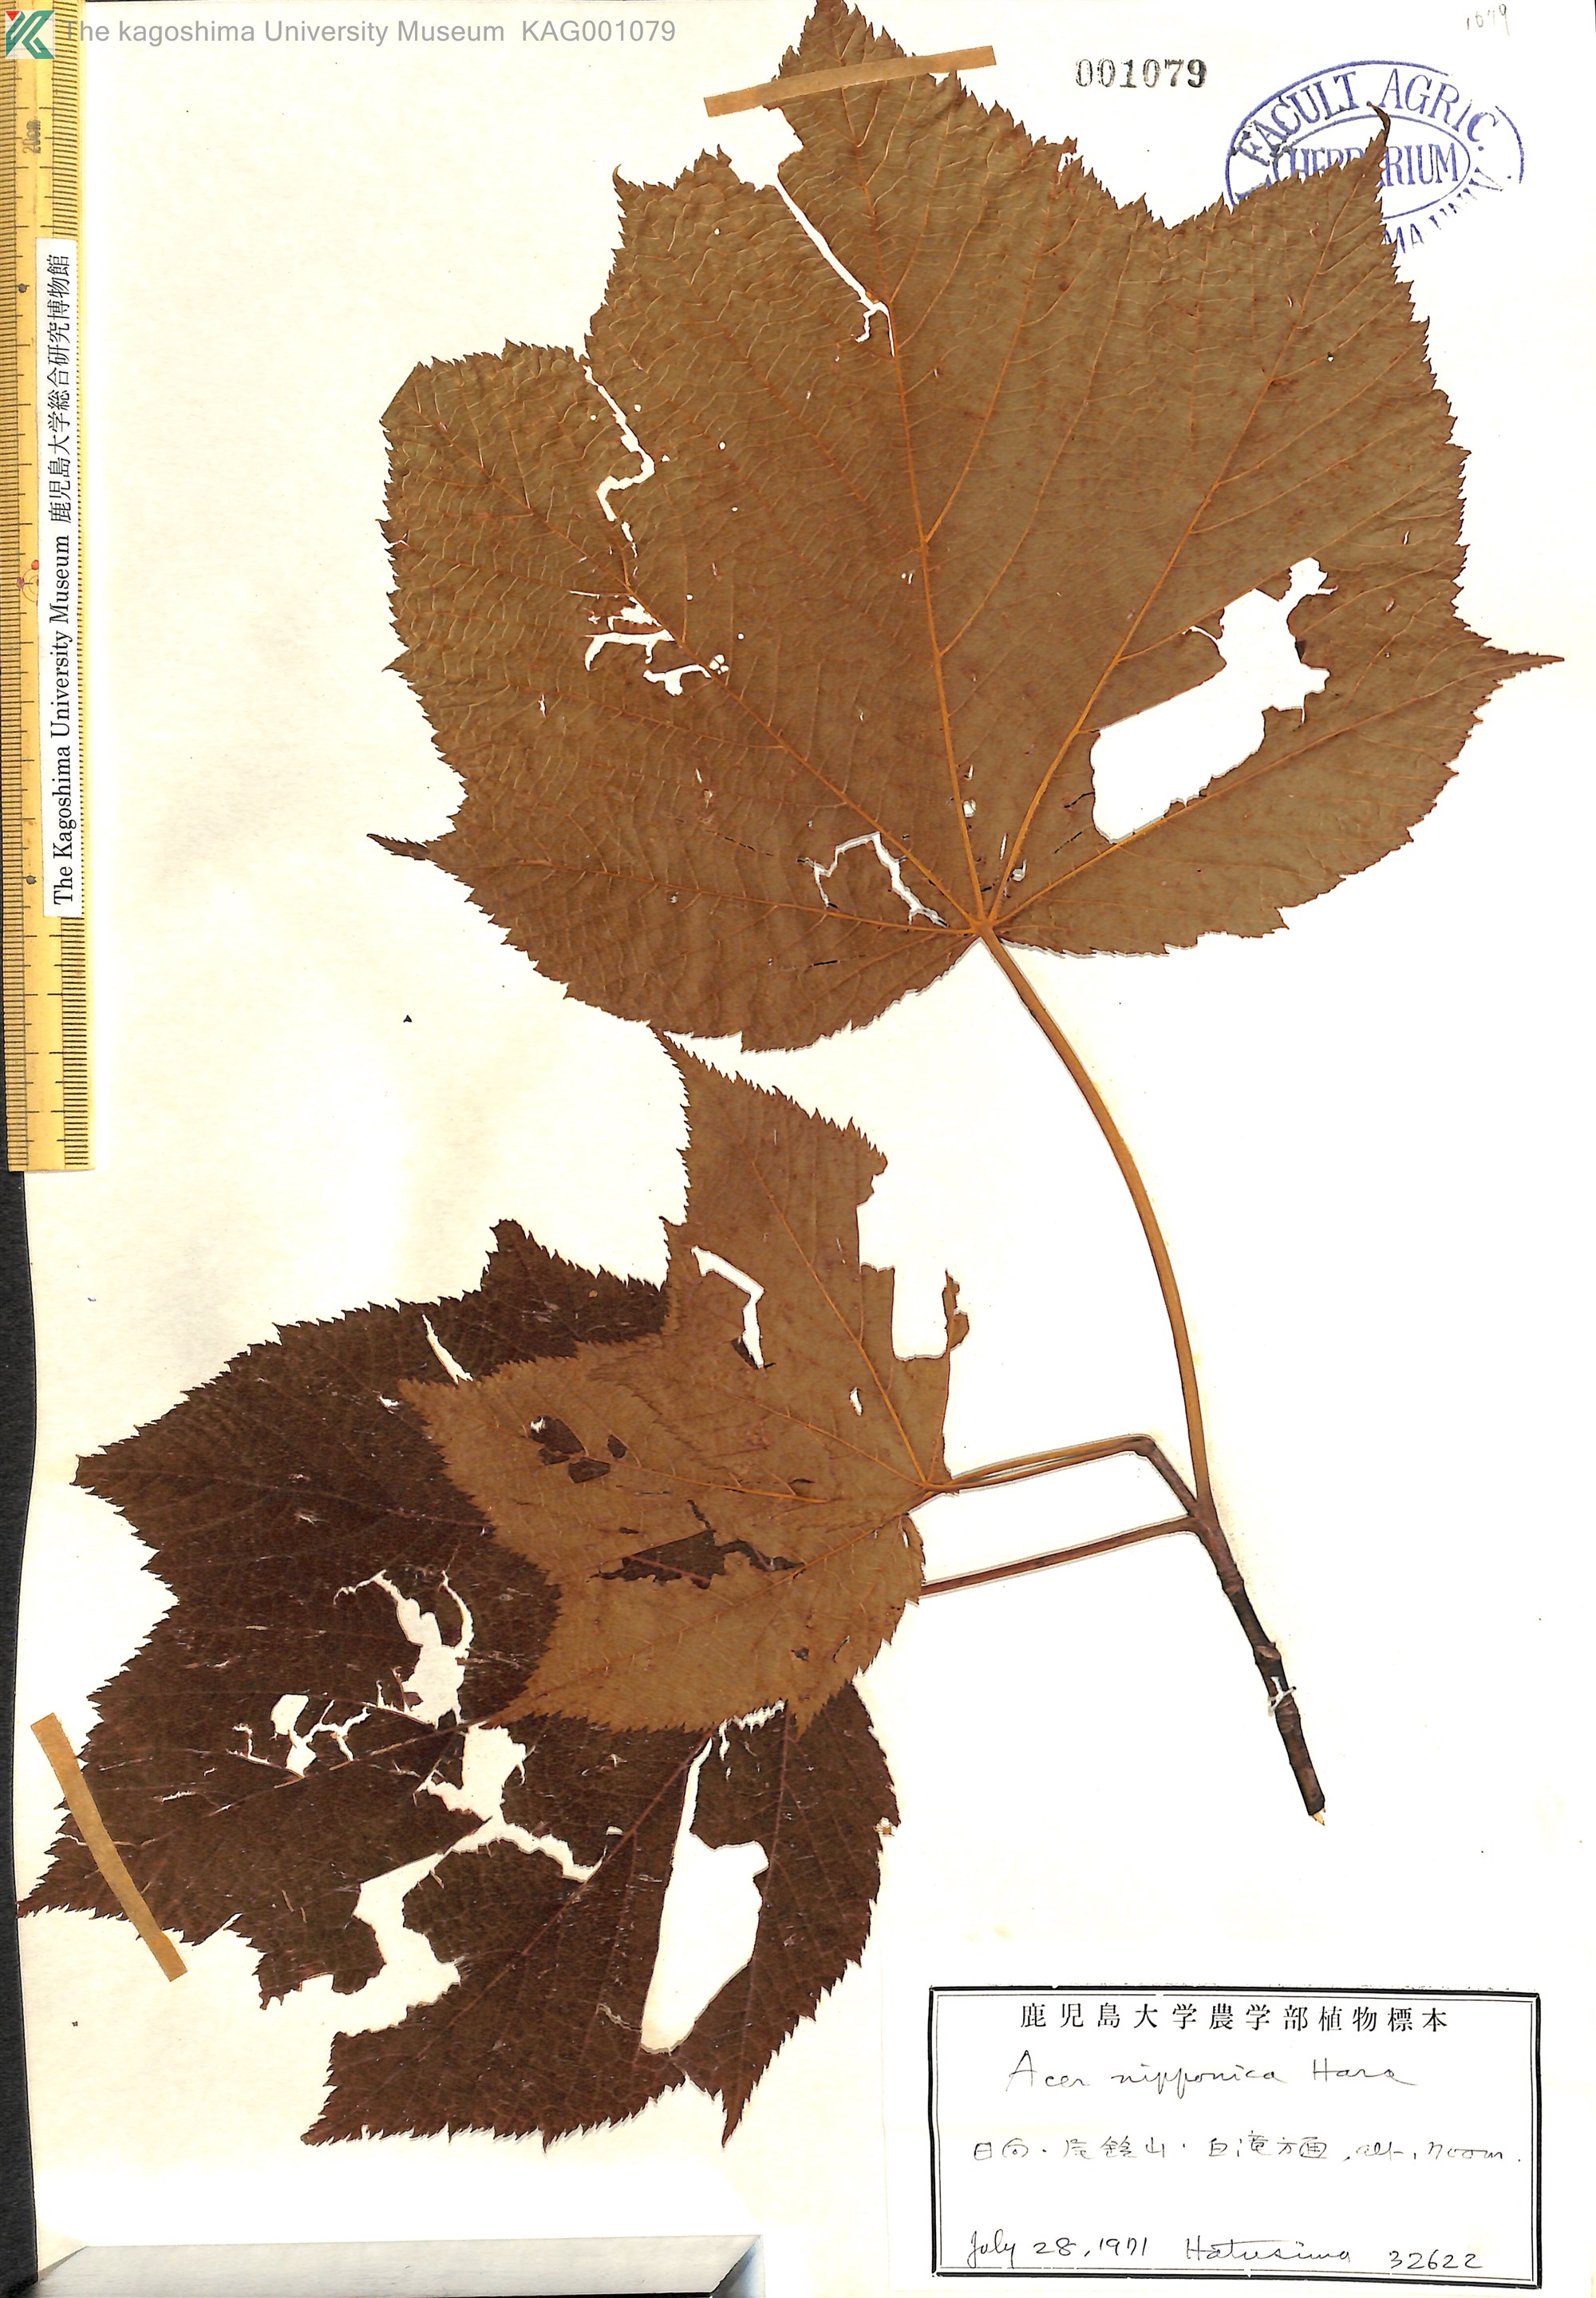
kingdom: Plantae
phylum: Tracheophyta
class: Magnoliopsida
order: Sapindales
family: Sapindaceae
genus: Acer
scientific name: Acer nipponicum
